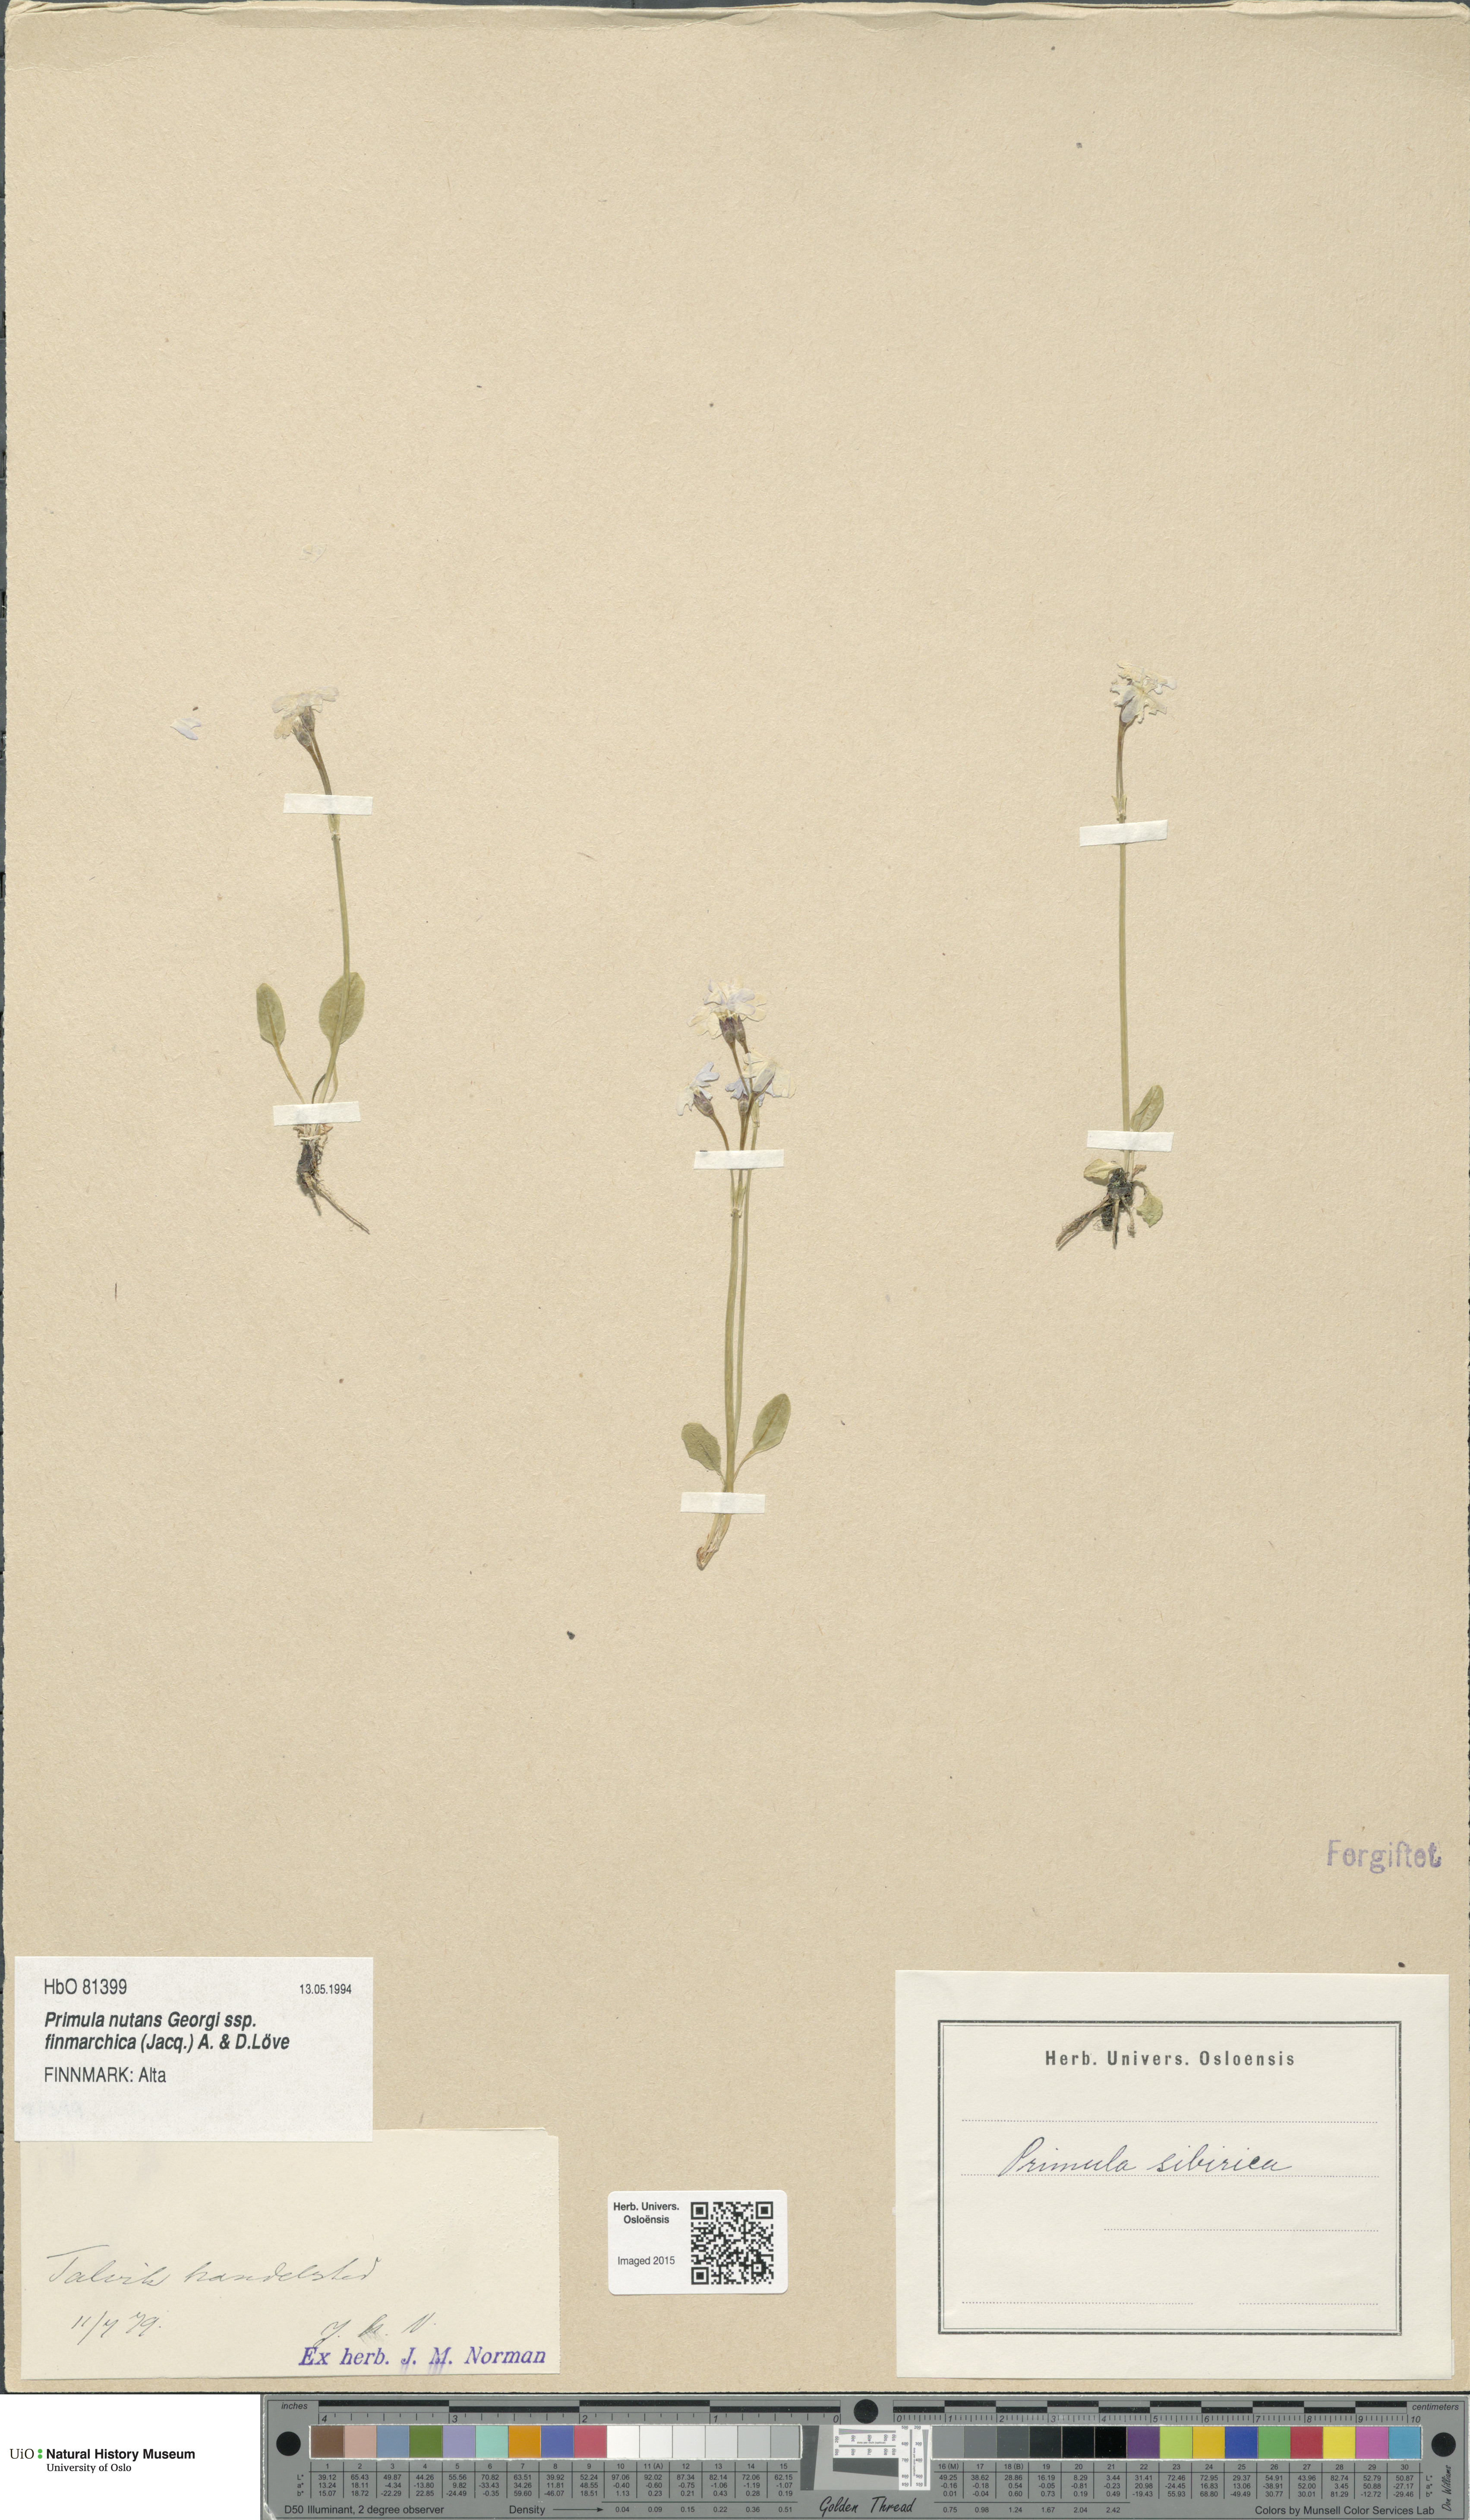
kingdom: Plantae
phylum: Tracheophyta
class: Magnoliopsida
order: Ericales
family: Primulaceae
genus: Primula
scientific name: Primula nutans
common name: Siberian primrose
